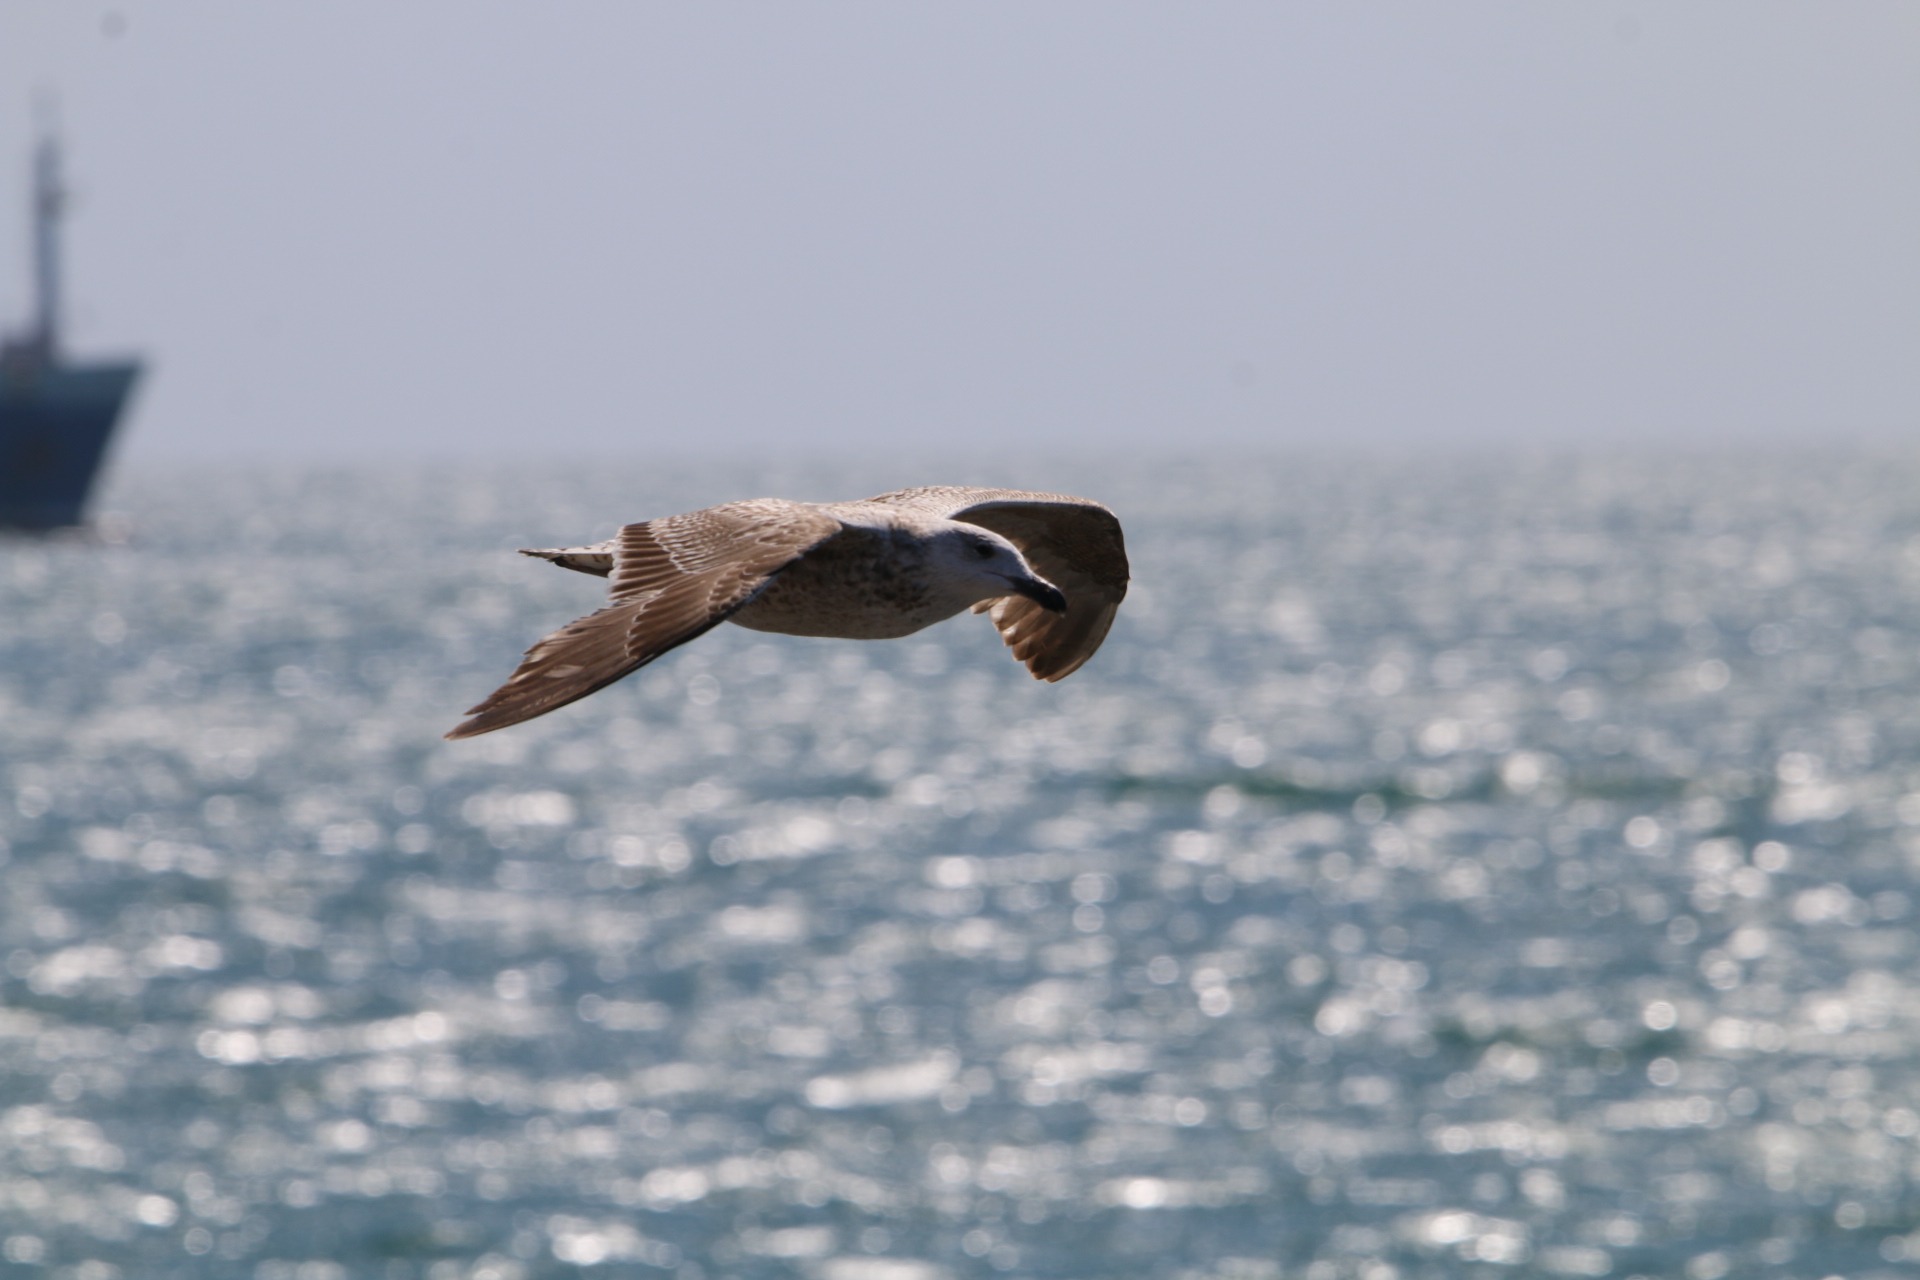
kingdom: Animalia
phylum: Chordata
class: Aves
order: Charadriiformes
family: Laridae
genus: Larus
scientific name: Larus marinus
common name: Svartbag
